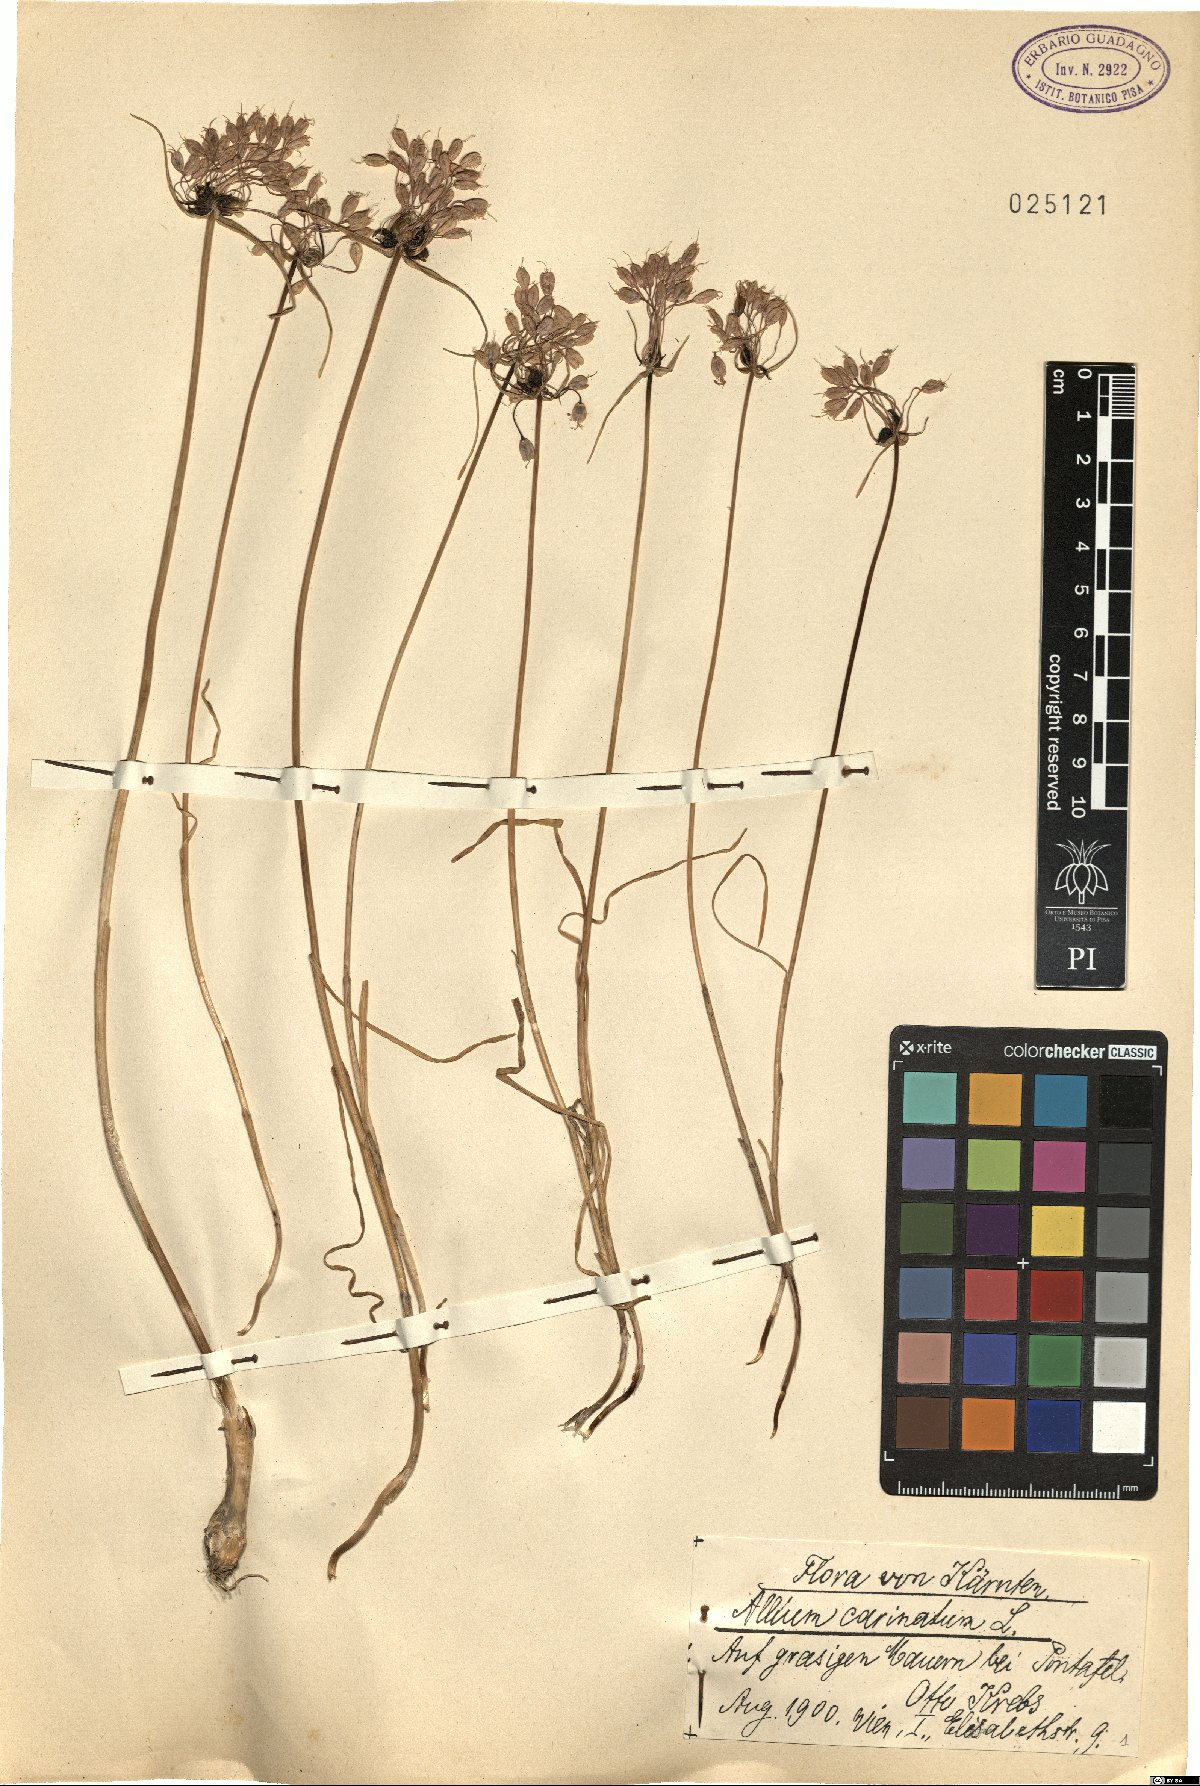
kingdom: Plantae
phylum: Tracheophyta
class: Liliopsida
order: Asparagales
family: Amaryllidaceae
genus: Allium
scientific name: Allium carinatum
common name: Keeled garlic
